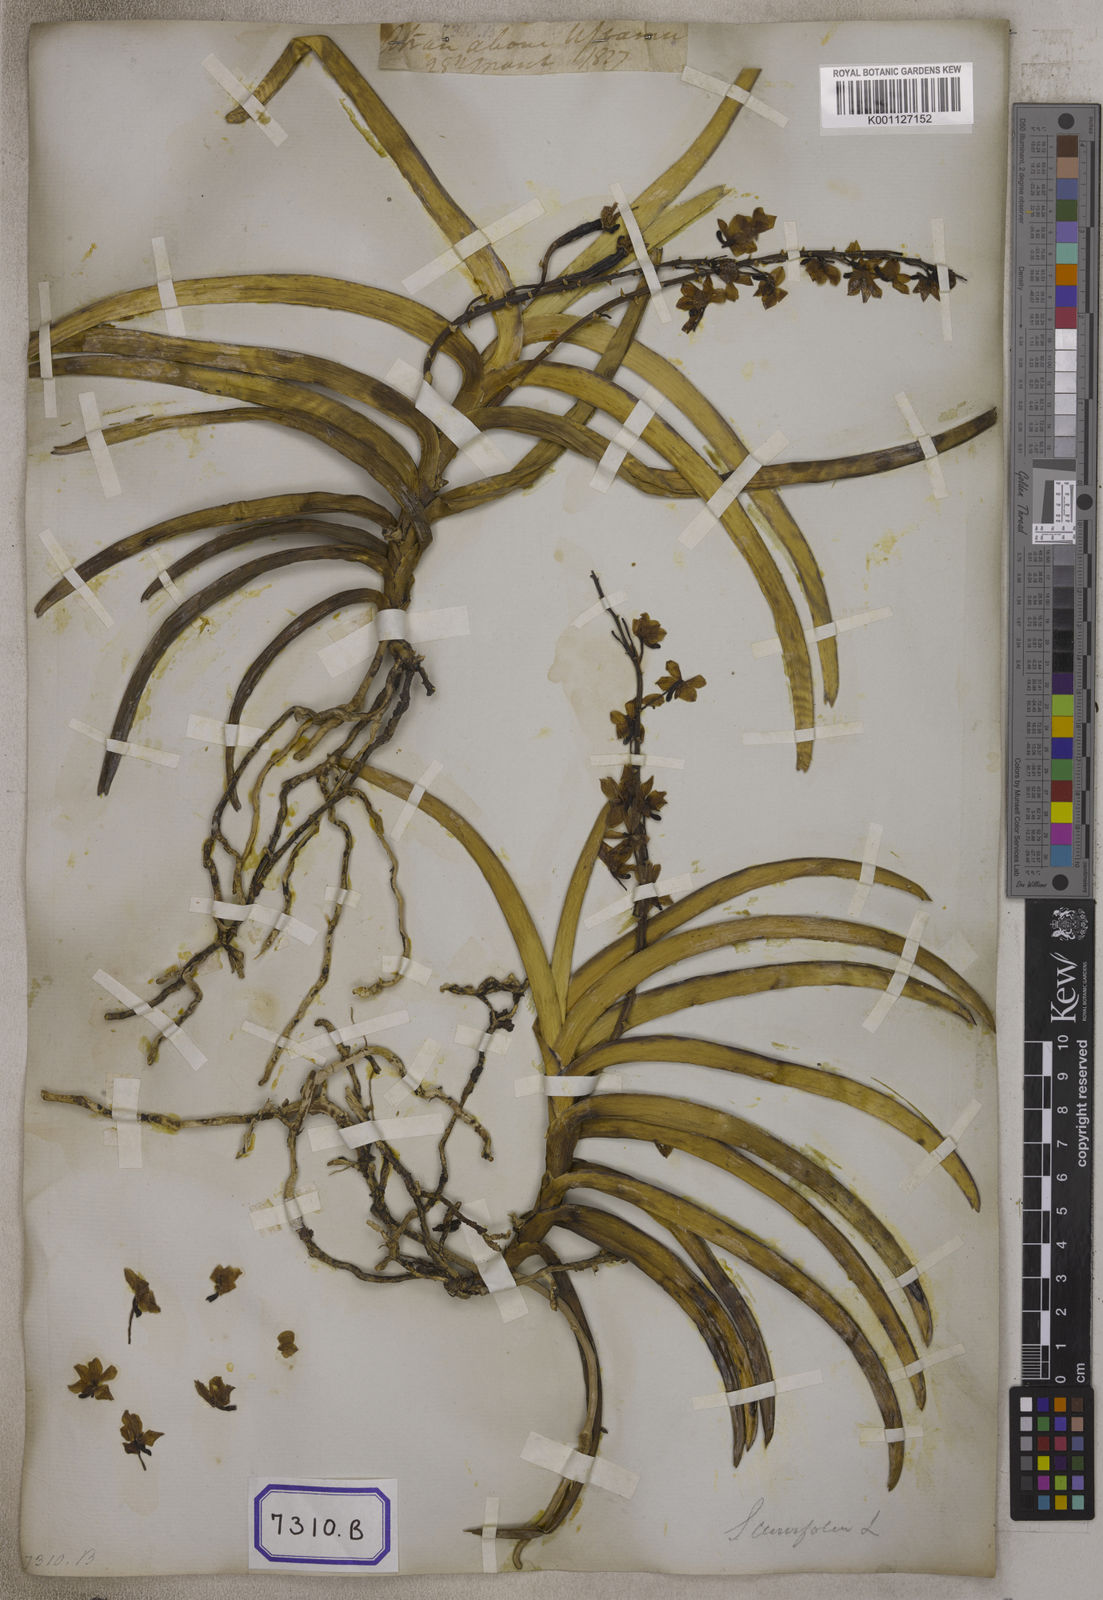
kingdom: Plantae
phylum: Tracheophyta
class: Liliopsida
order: Asparagales
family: Orchidaceae
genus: Vanda
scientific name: Vanda rubra
